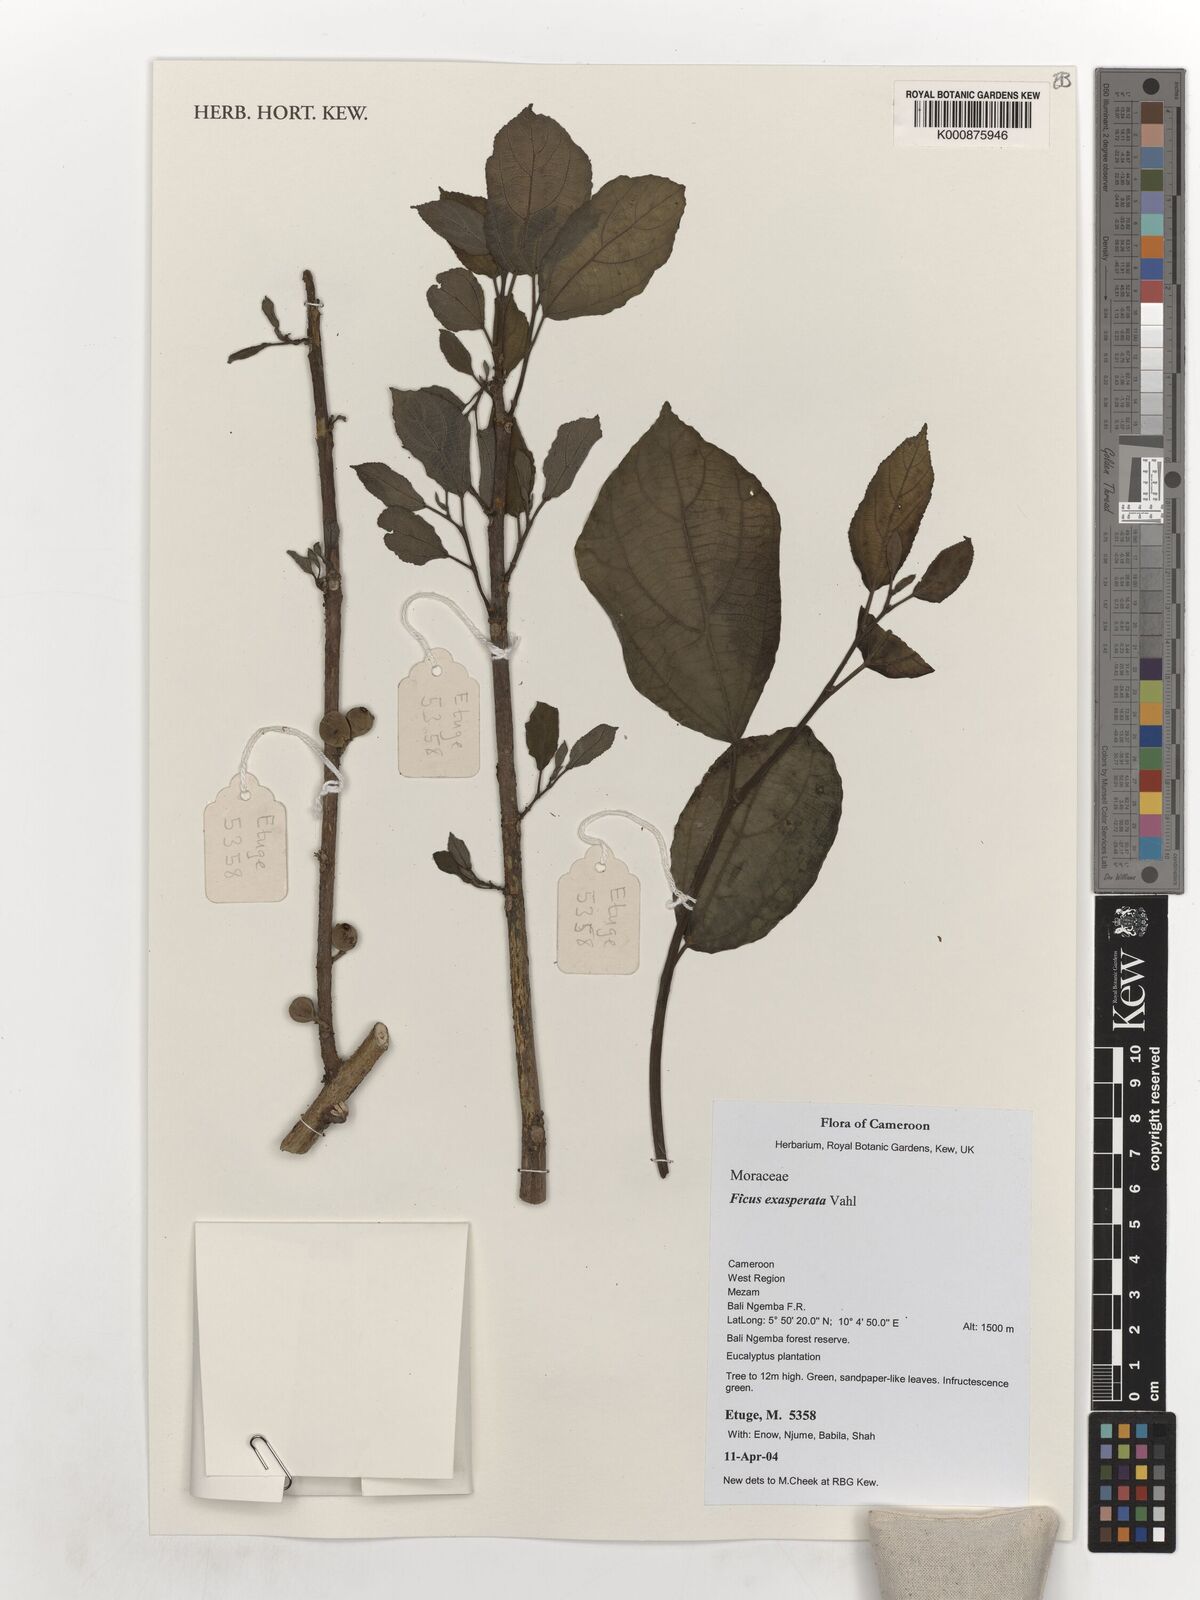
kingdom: Plantae
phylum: Tracheophyta
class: Magnoliopsida
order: Rosales
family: Moraceae
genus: Ficus
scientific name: Ficus exasperata
